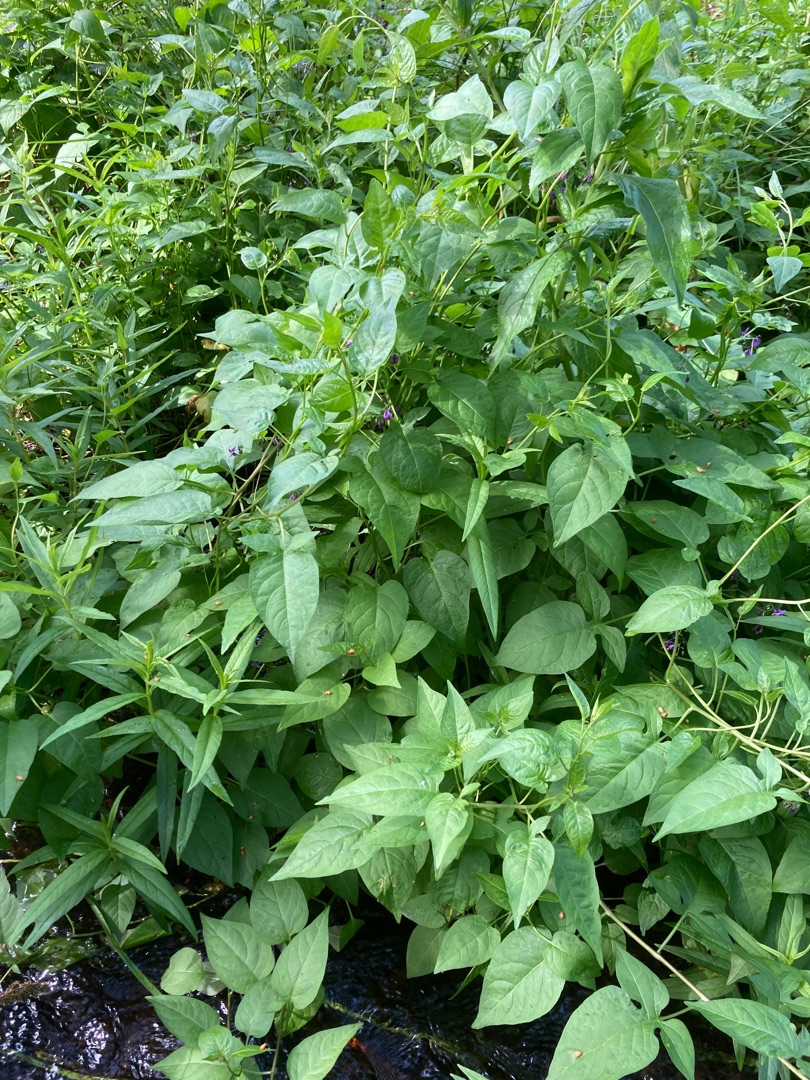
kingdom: Plantae
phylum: Tracheophyta
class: Magnoliopsida
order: Solanales
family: Solanaceae
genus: Solanum
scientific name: Solanum dulcamara
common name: Bittersød natskygge
